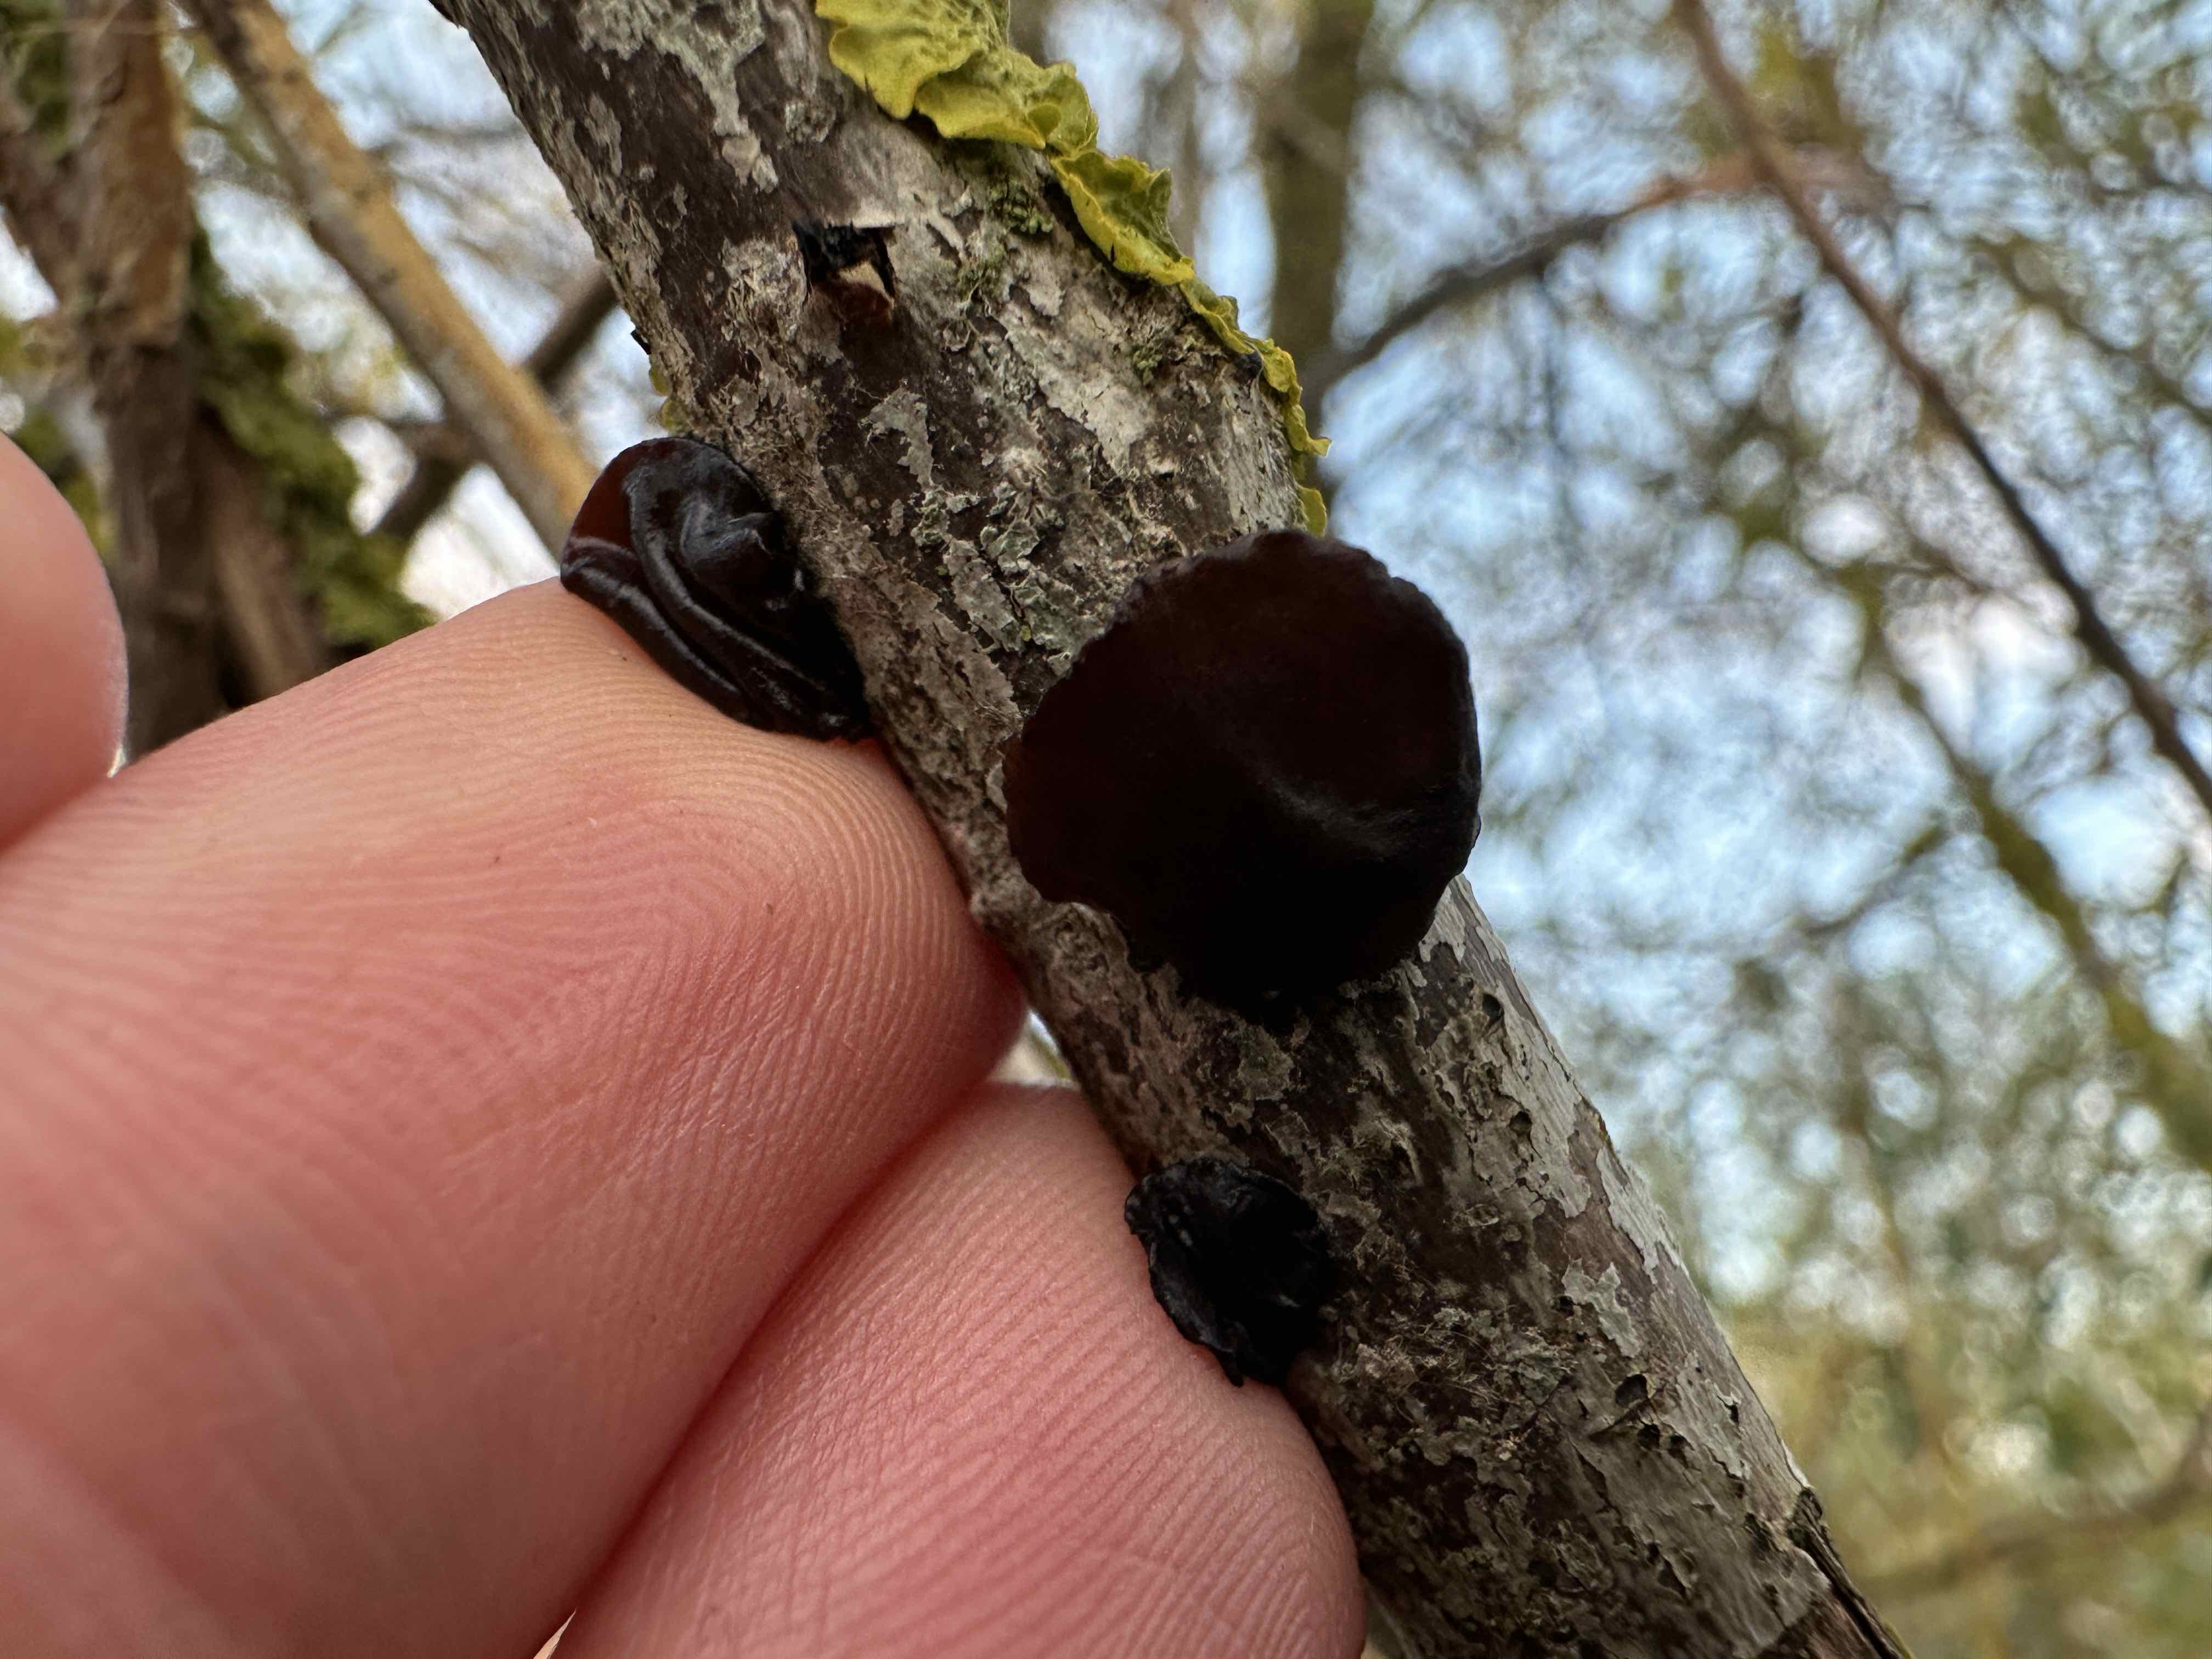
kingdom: Fungi
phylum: Basidiomycota
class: Agaricomycetes
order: Auriculariales
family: Auriculariaceae
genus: Exidia
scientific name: Exidia recisa
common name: pile-bævretop
